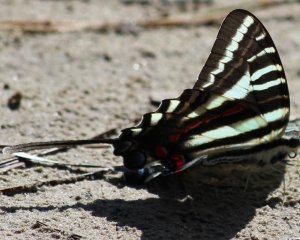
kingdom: Animalia
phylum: Arthropoda
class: Insecta
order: Lepidoptera
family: Papilionidae
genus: Protographium
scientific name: Protographium marcellus
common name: Zebra Swallowtail
